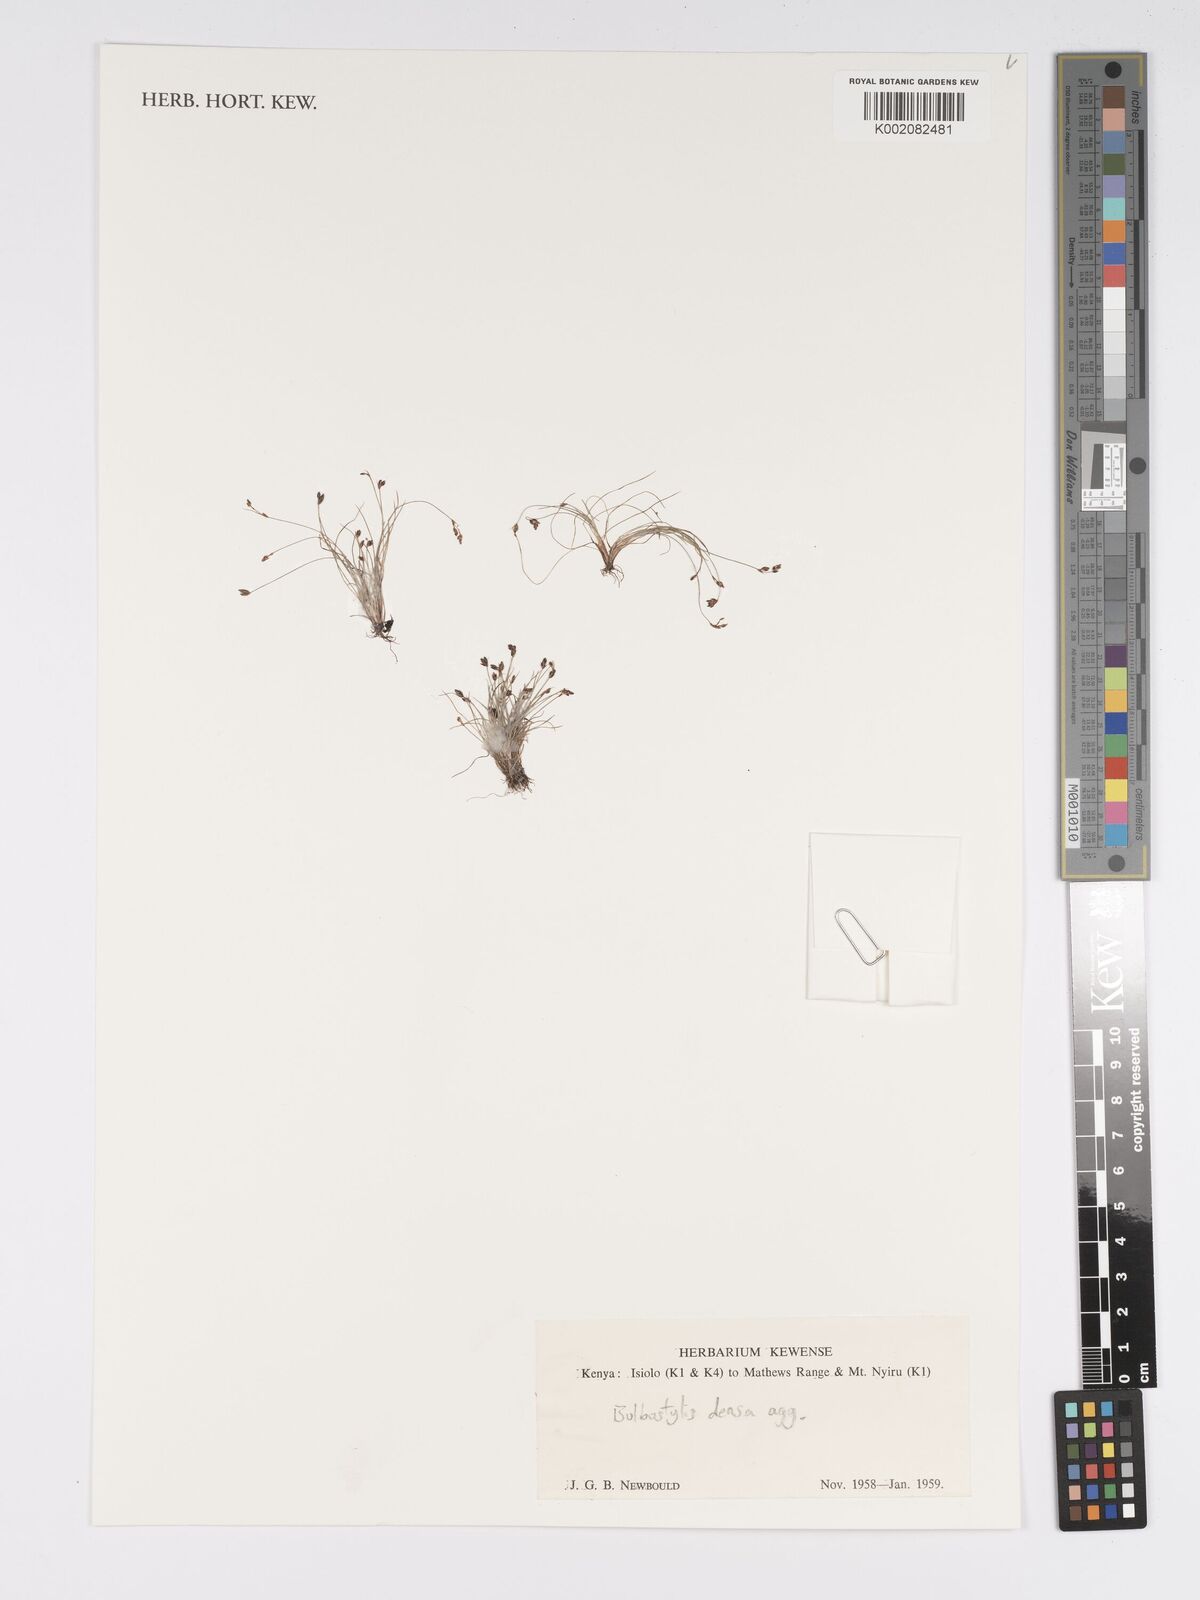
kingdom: Plantae
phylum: Tracheophyta
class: Liliopsida
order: Poales
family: Cyperaceae
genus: Bulbostylis
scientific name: Bulbostylis densa
